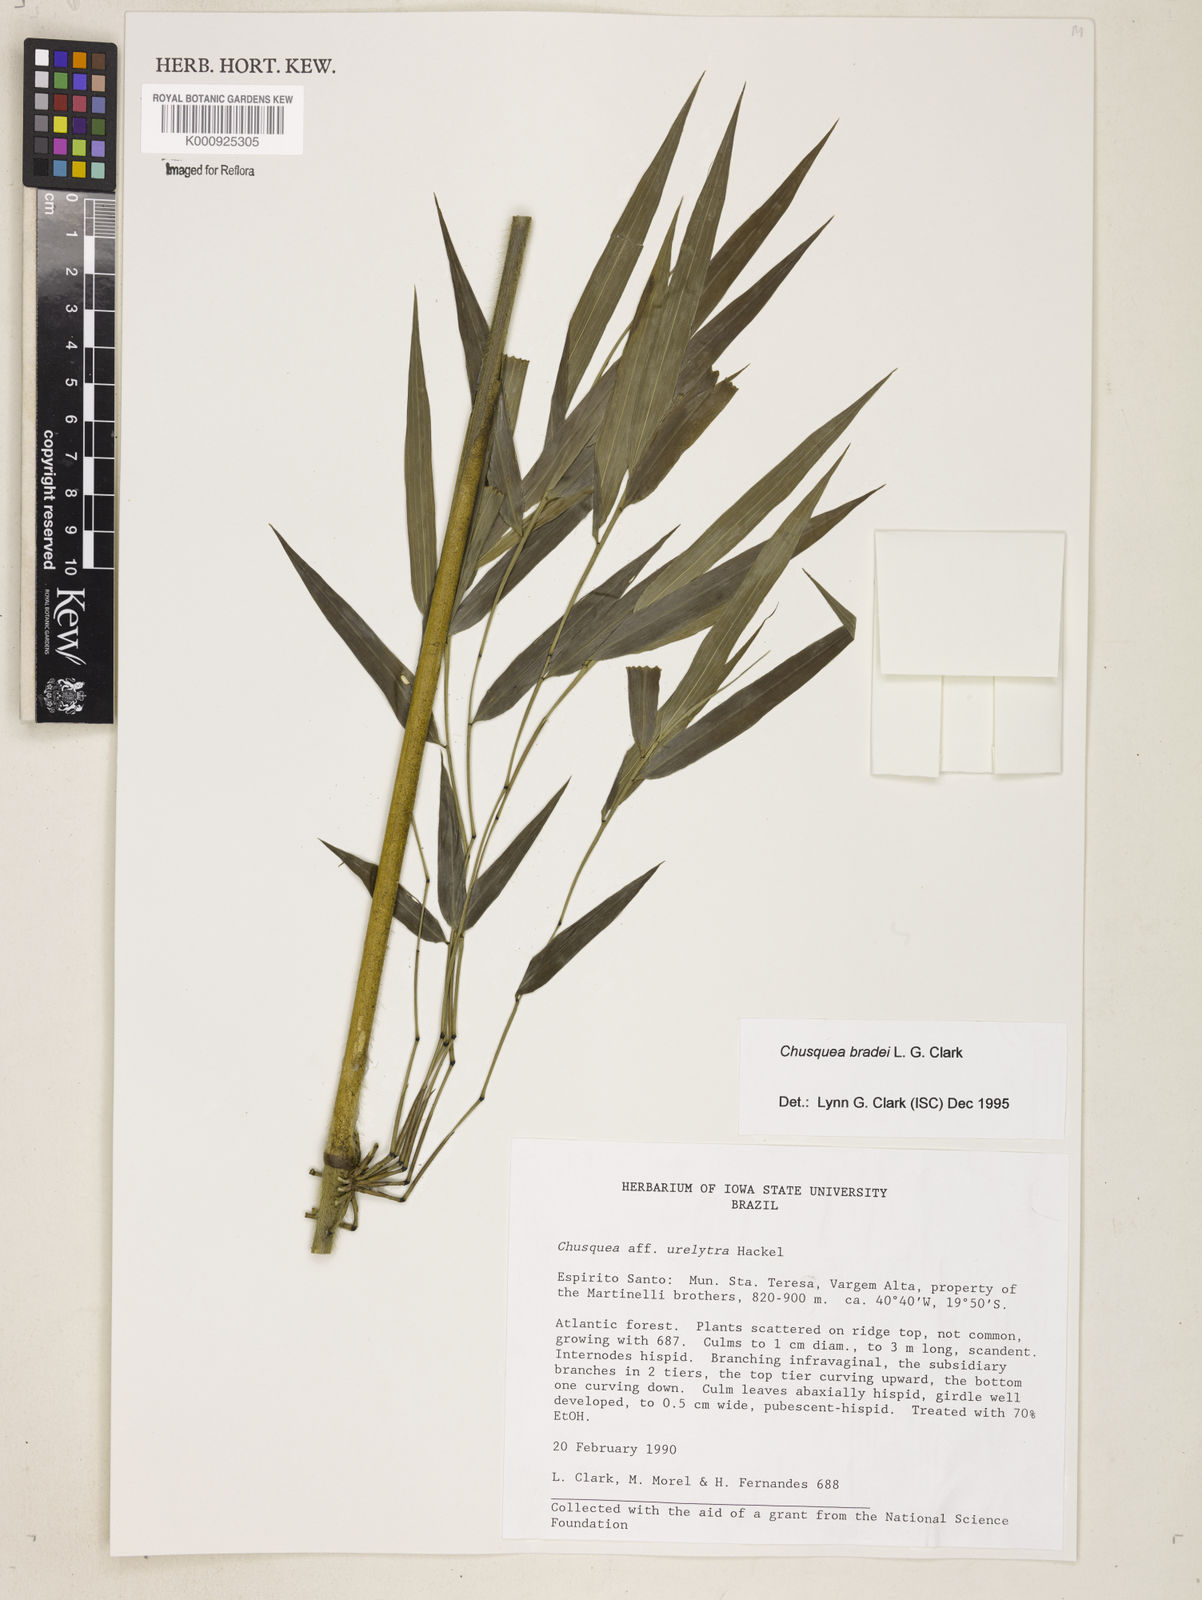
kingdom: Plantae
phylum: Tracheophyta
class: Liliopsida
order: Poales
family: Poaceae
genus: Chusquea
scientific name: Chusquea bradei
